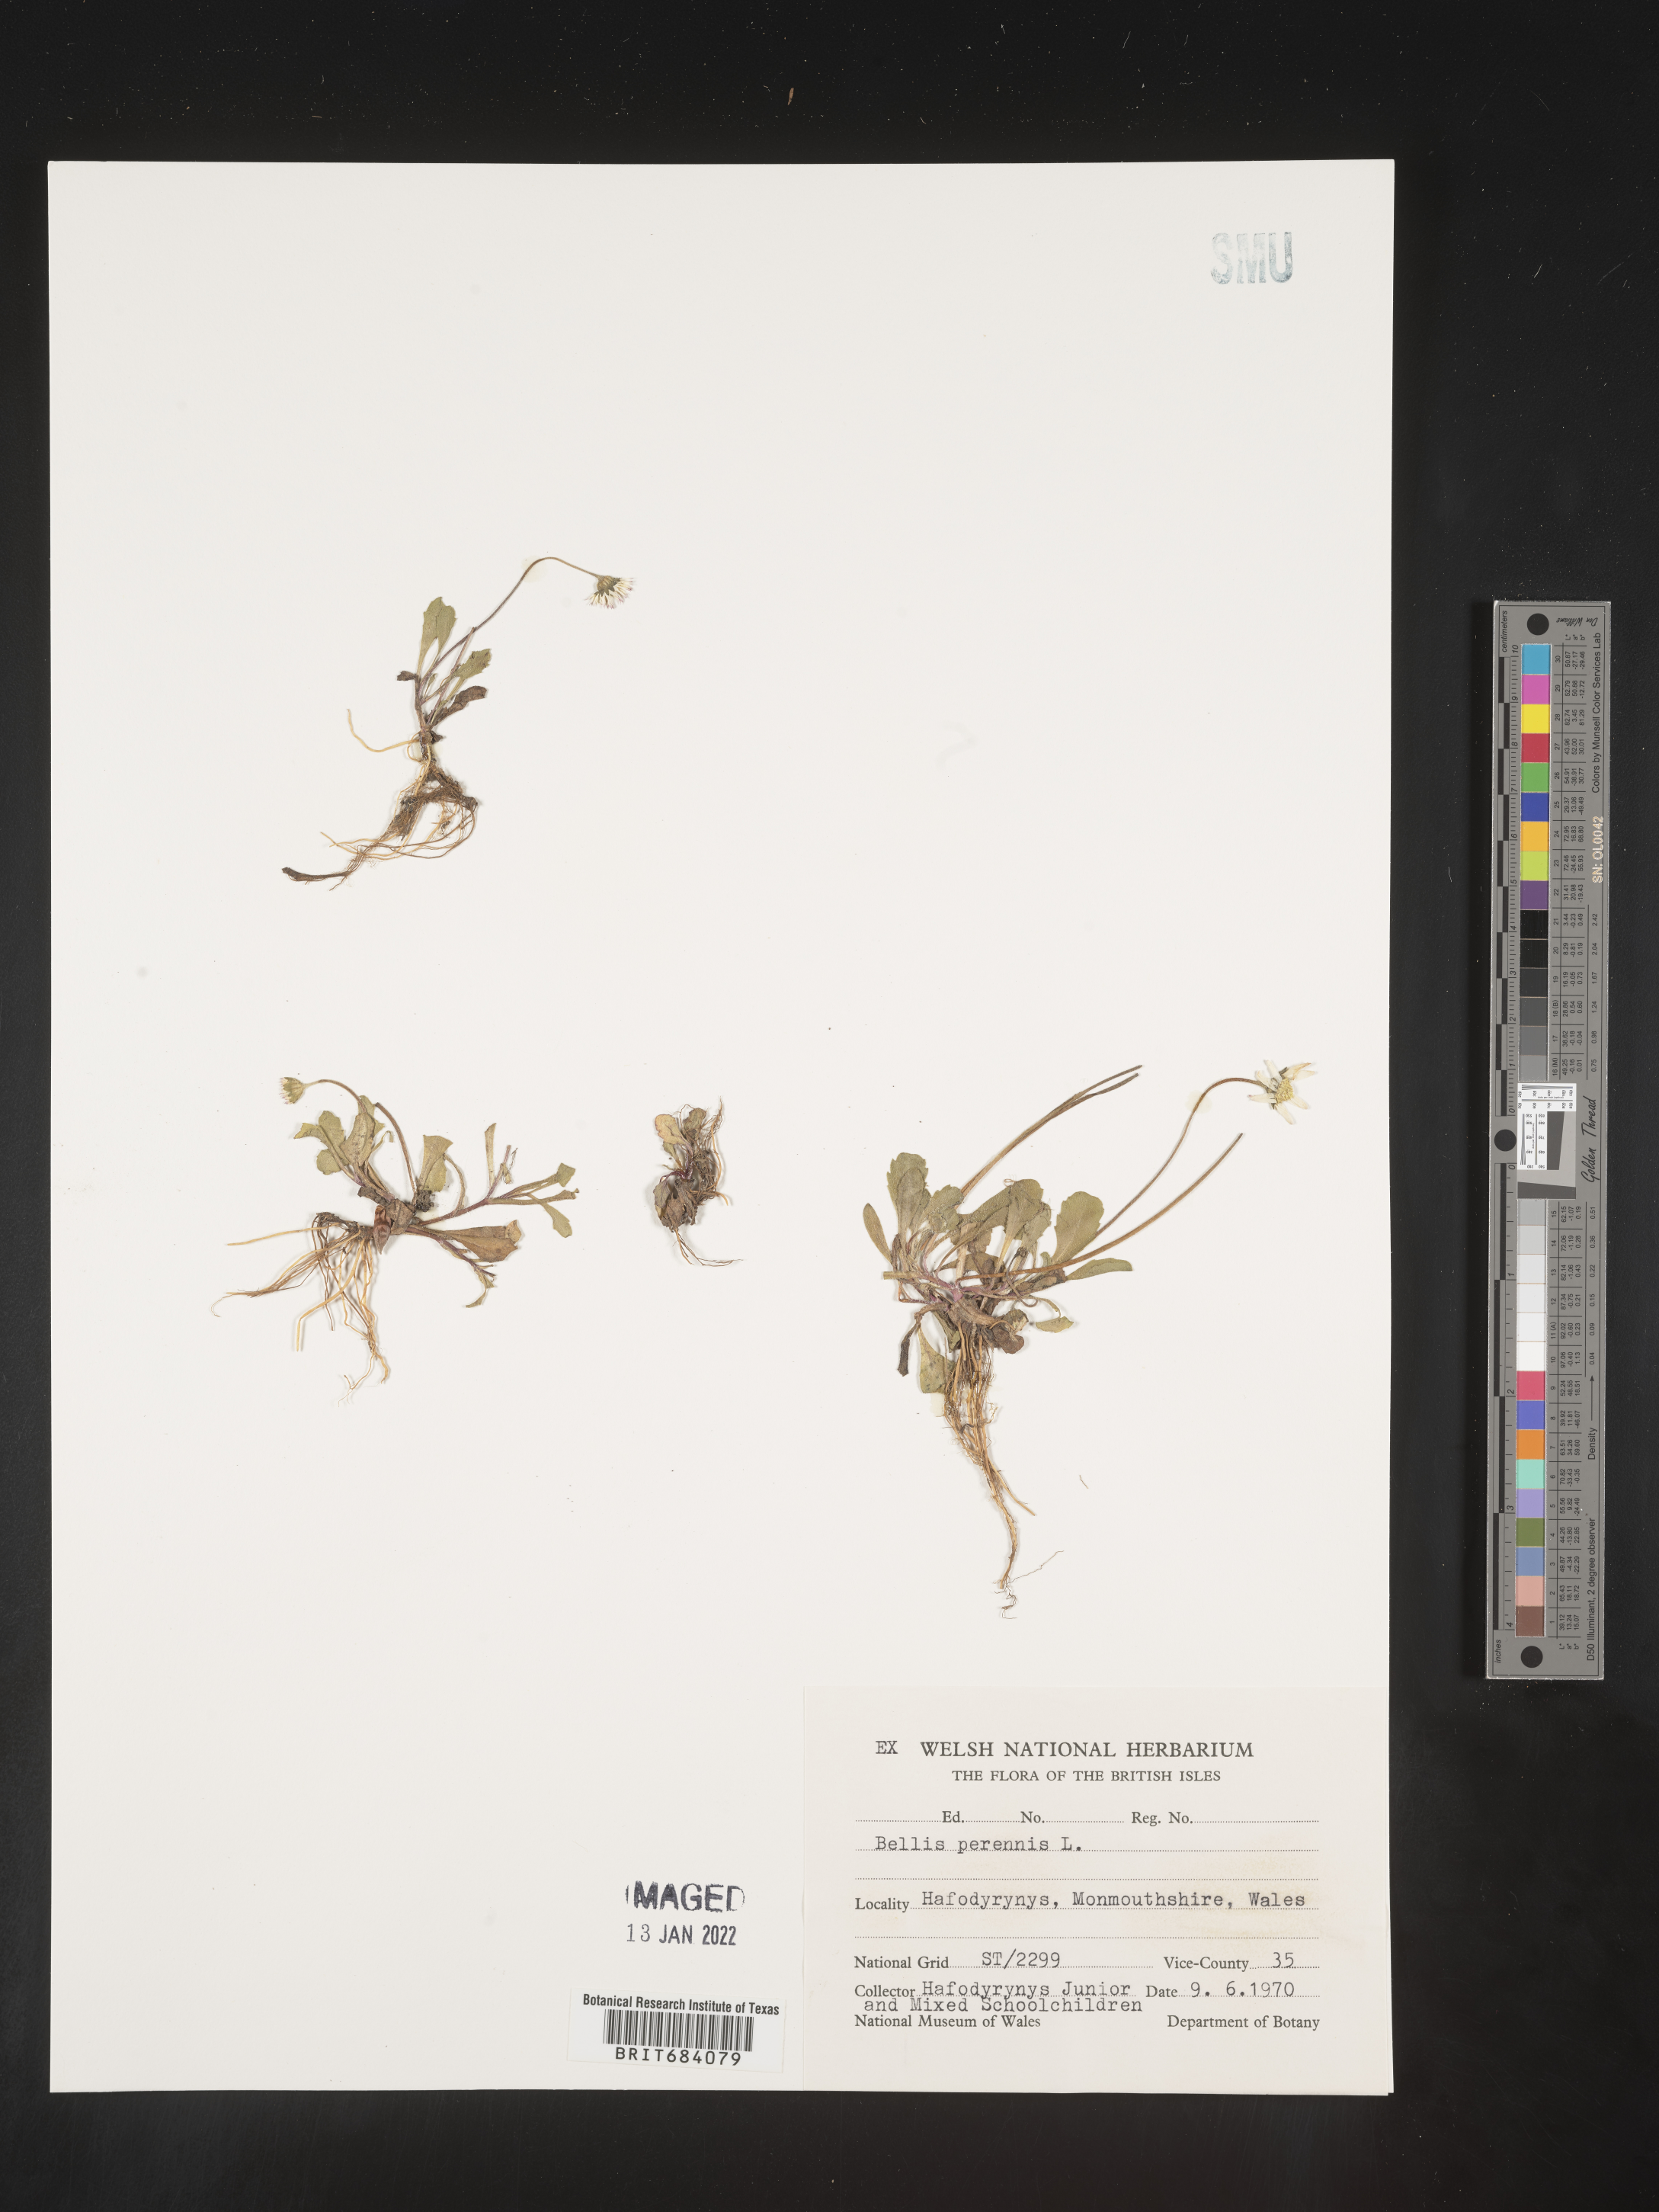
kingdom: Plantae
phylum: Tracheophyta
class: Magnoliopsida
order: Asterales
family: Asteraceae
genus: Bellis
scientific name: Bellis
